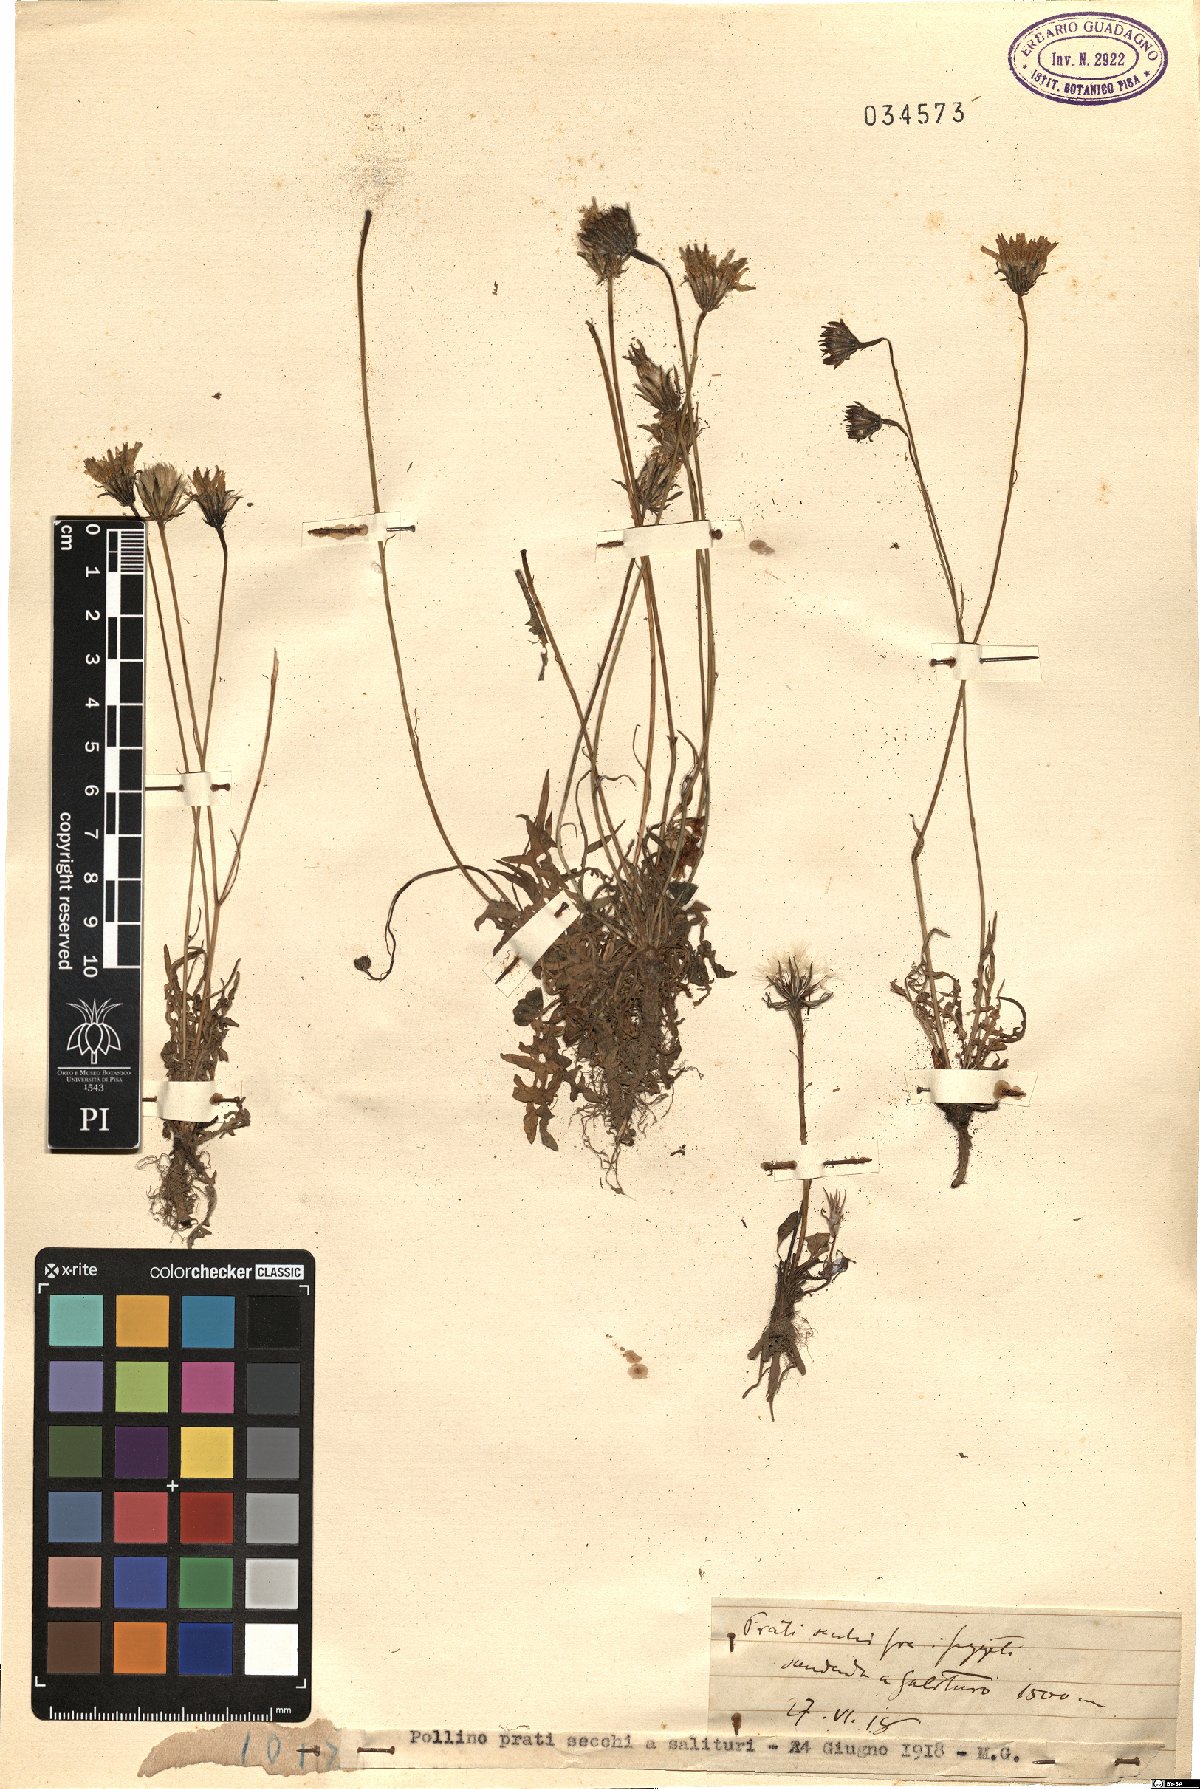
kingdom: Plantae
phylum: Tracheophyta
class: Magnoliopsida
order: Asterales
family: Asteraceae
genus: Hyoseris
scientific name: Hyoseris
